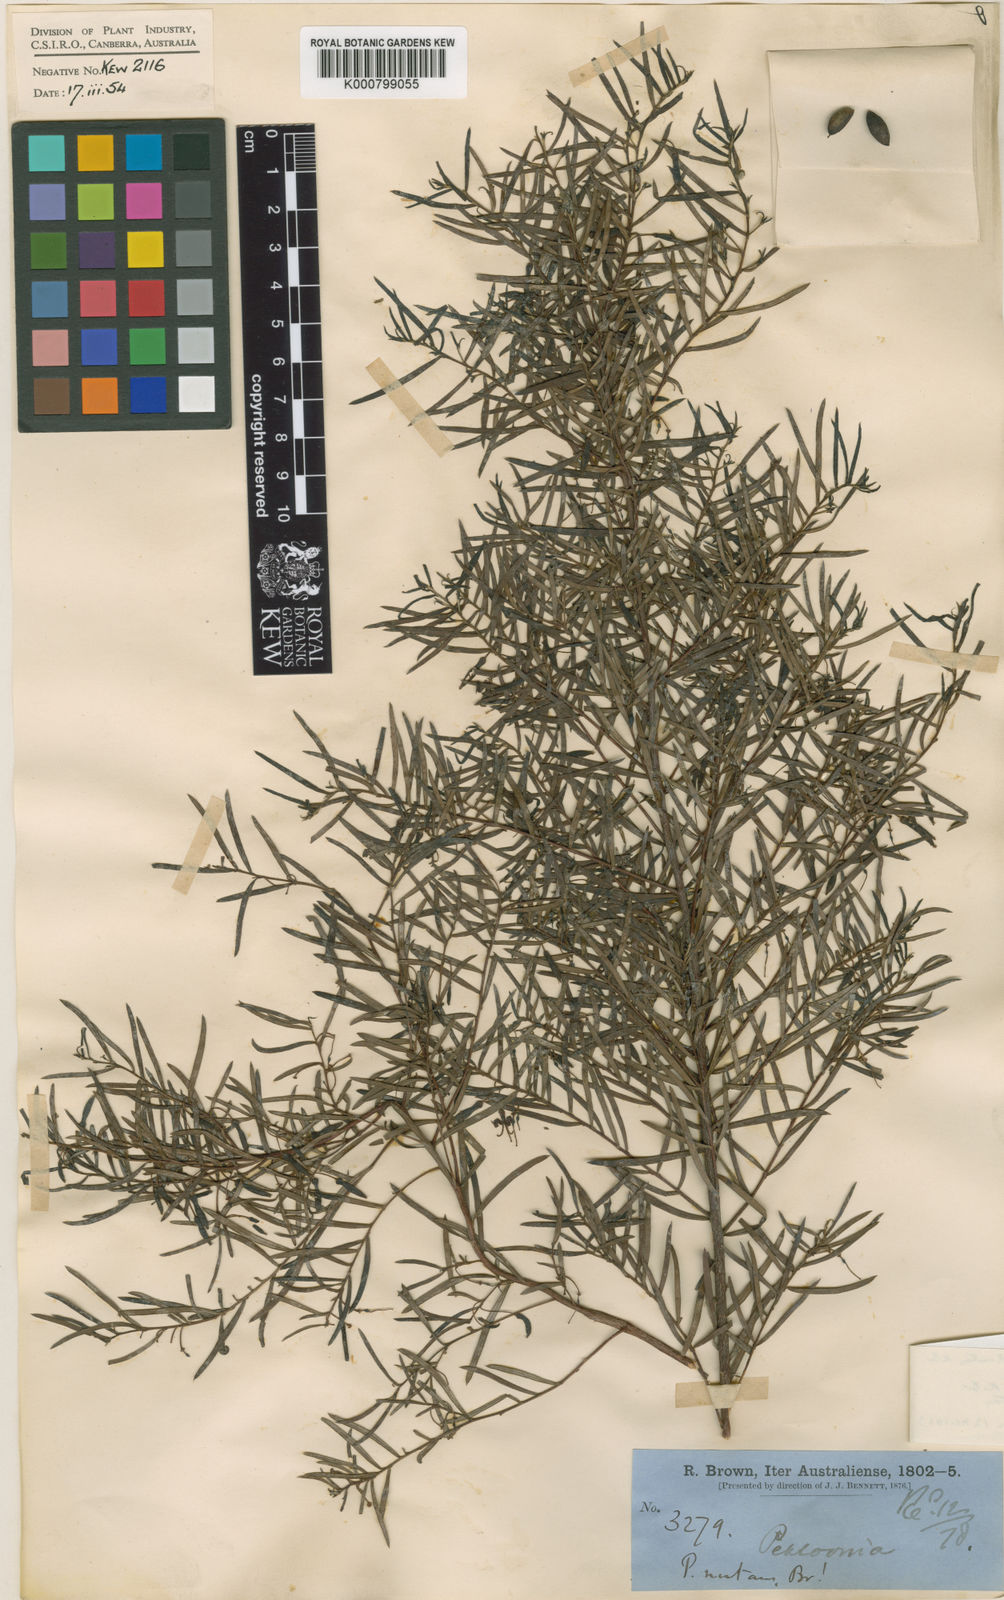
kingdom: Plantae
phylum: Tracheophyta
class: Magnoliopsida
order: Proteales
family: Proteaceae
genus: Persoonia
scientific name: Persoonia nutans
